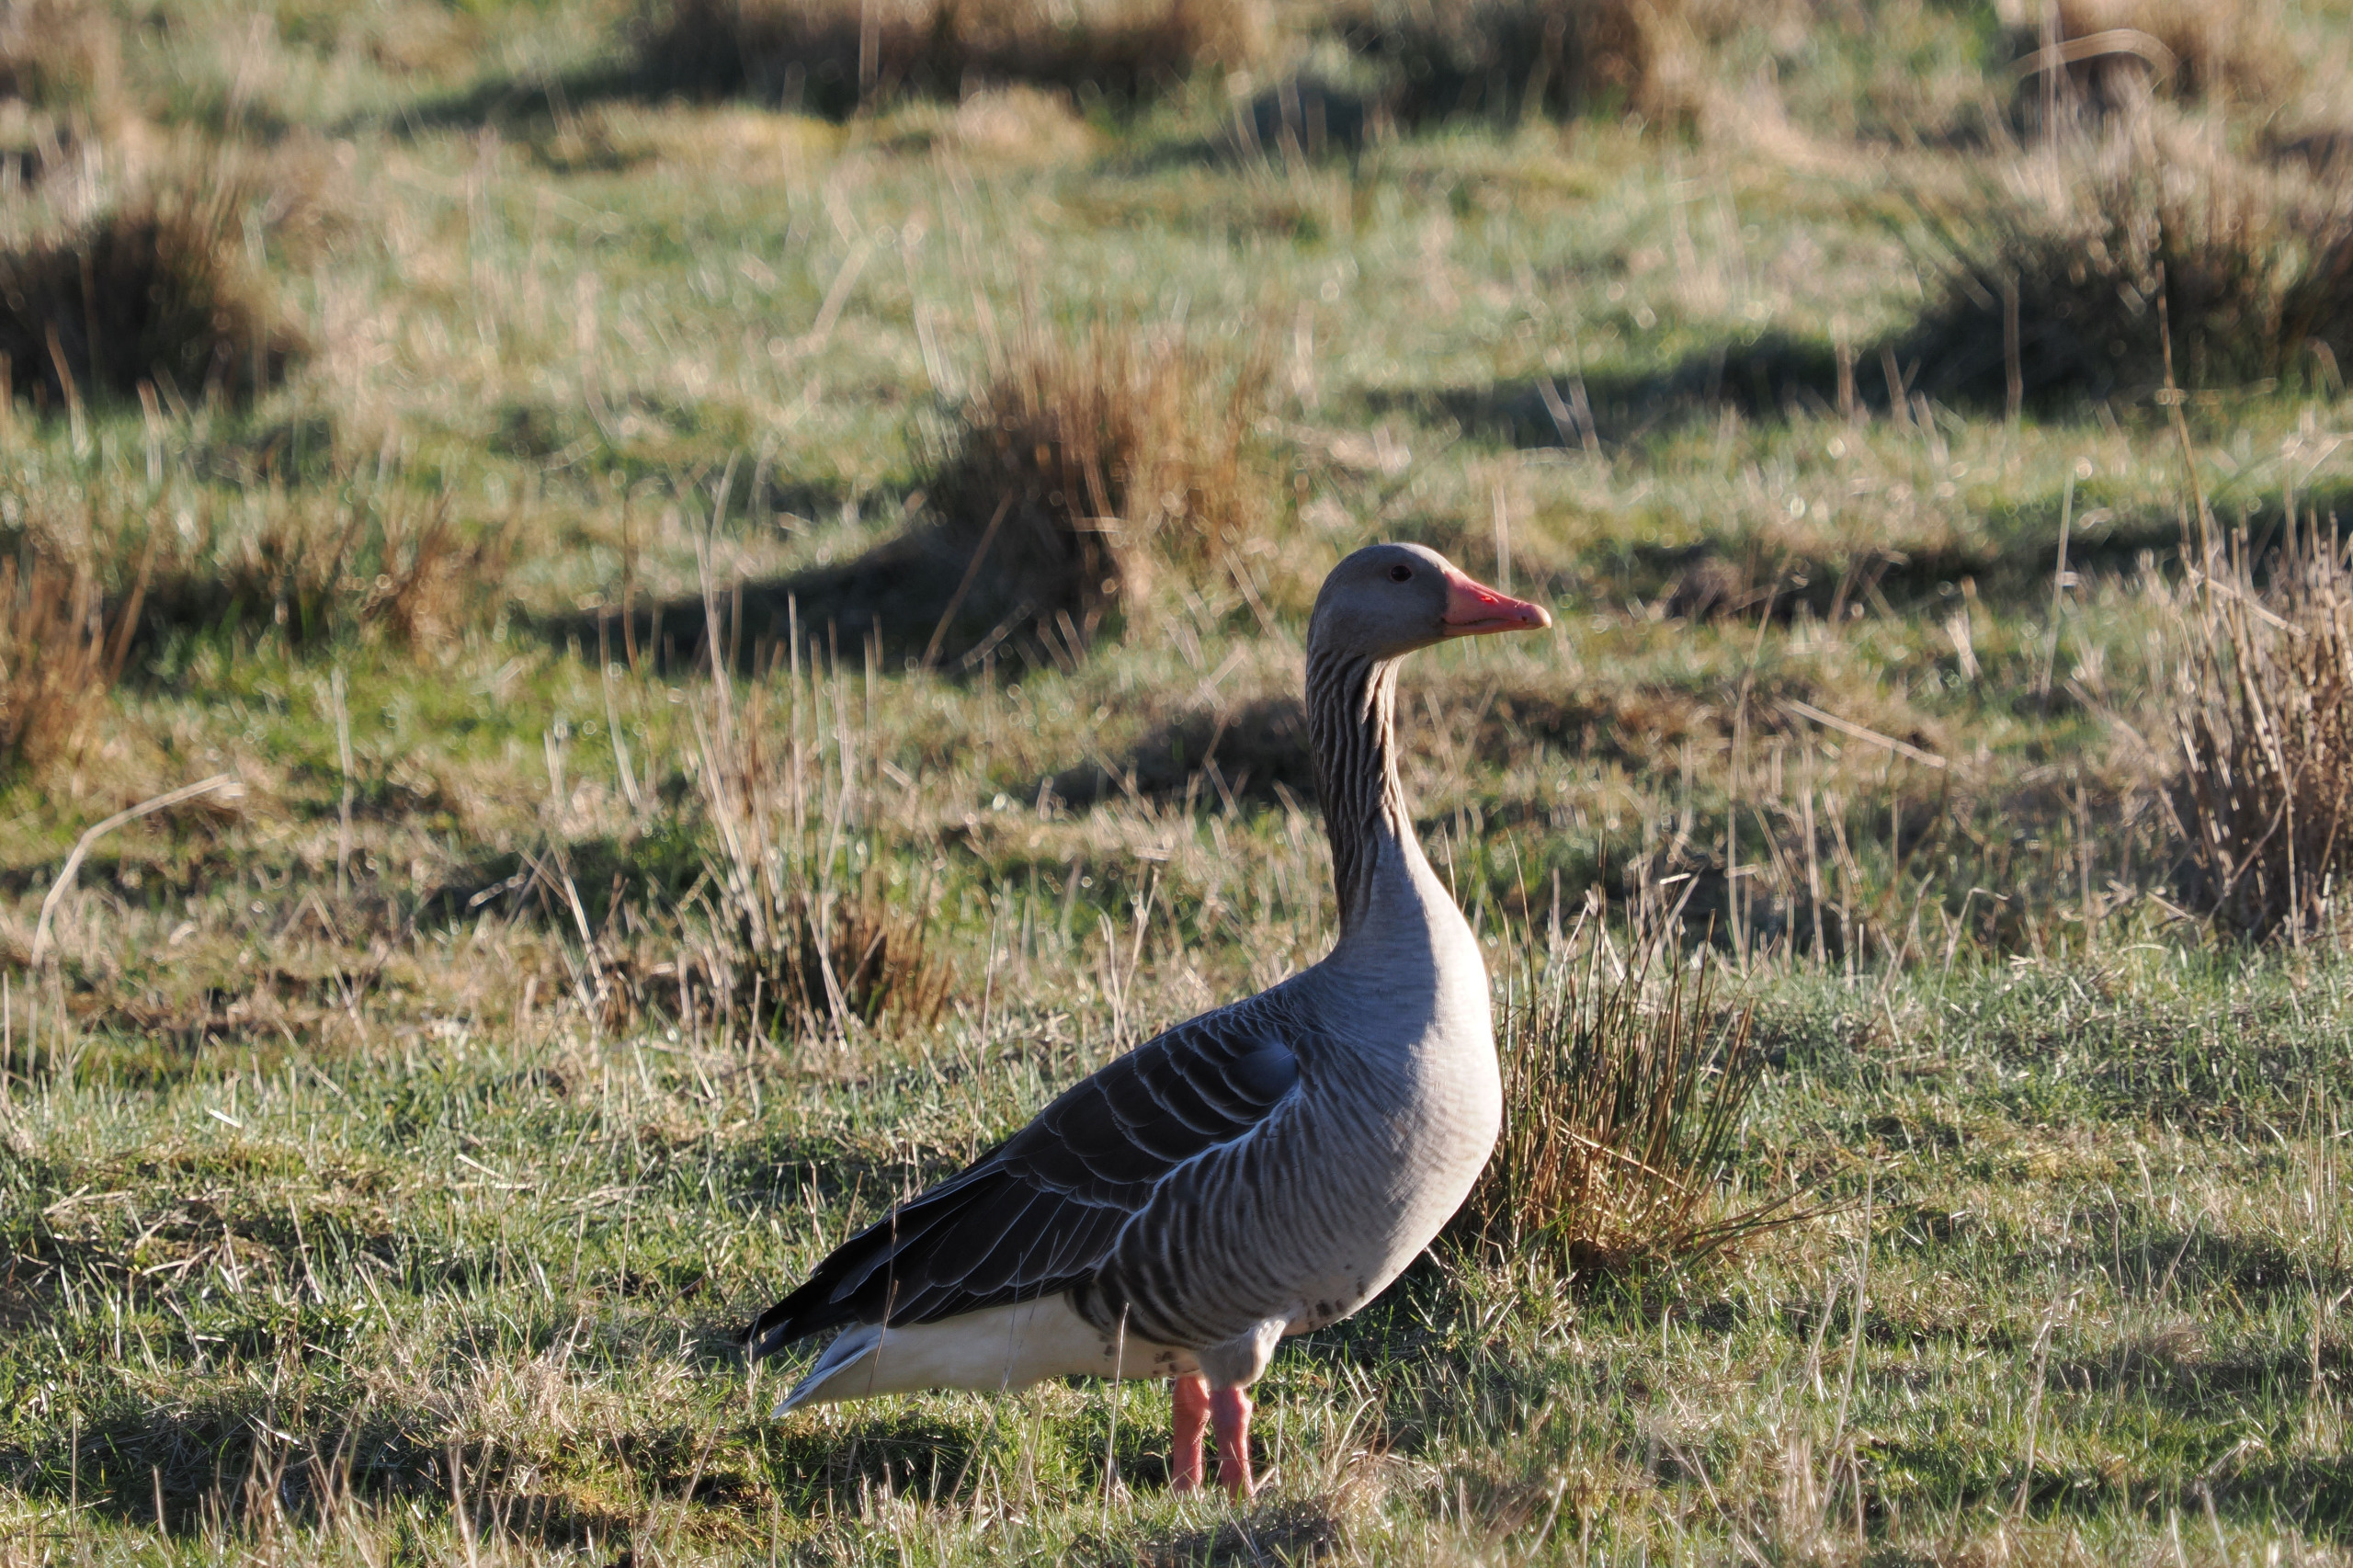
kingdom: Animalia
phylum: Chordata
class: Aves
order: Anseriformes
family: Anatidae
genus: Anser
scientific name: Anser anser
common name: Grågås
